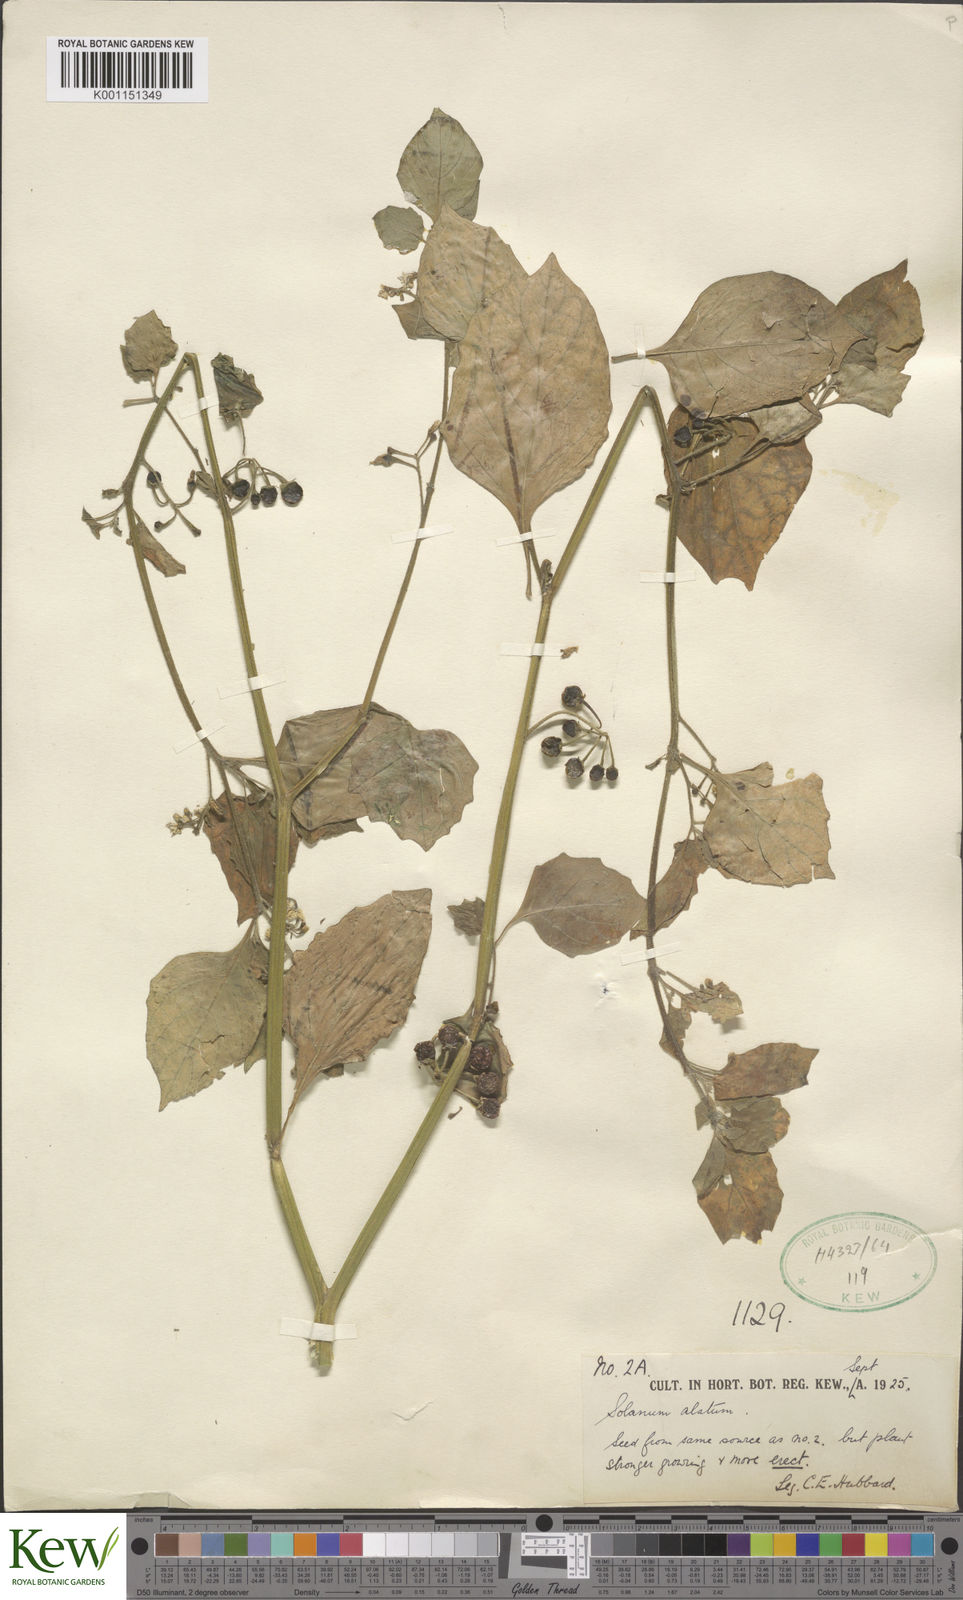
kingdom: Plantae
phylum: Tracheophyta
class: Magnoliopsida
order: Solanales
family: Solanaceae
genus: Solanum
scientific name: Solanum alatum
